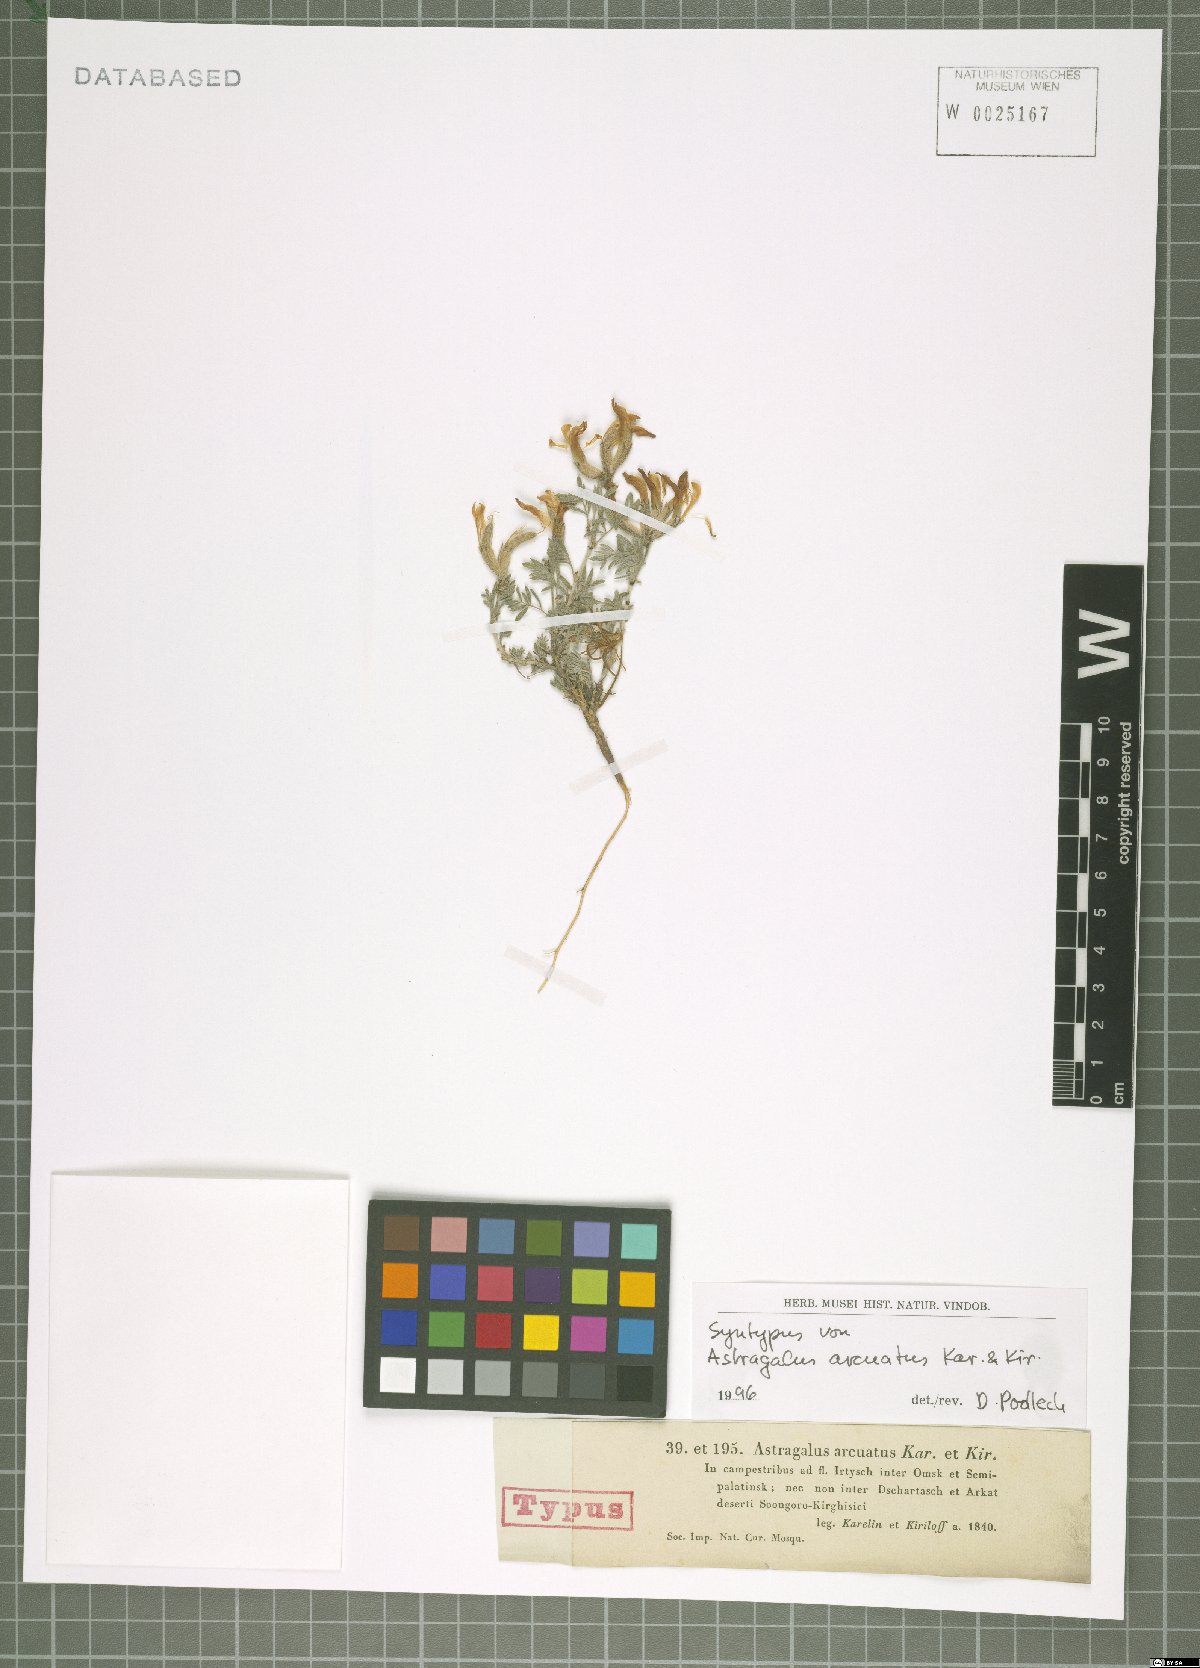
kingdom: Plantae
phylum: Tracheophyta
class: Magnoliopsida
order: Fabales
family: Fabaceae
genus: Astragalus
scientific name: Astragalus arcuatus
